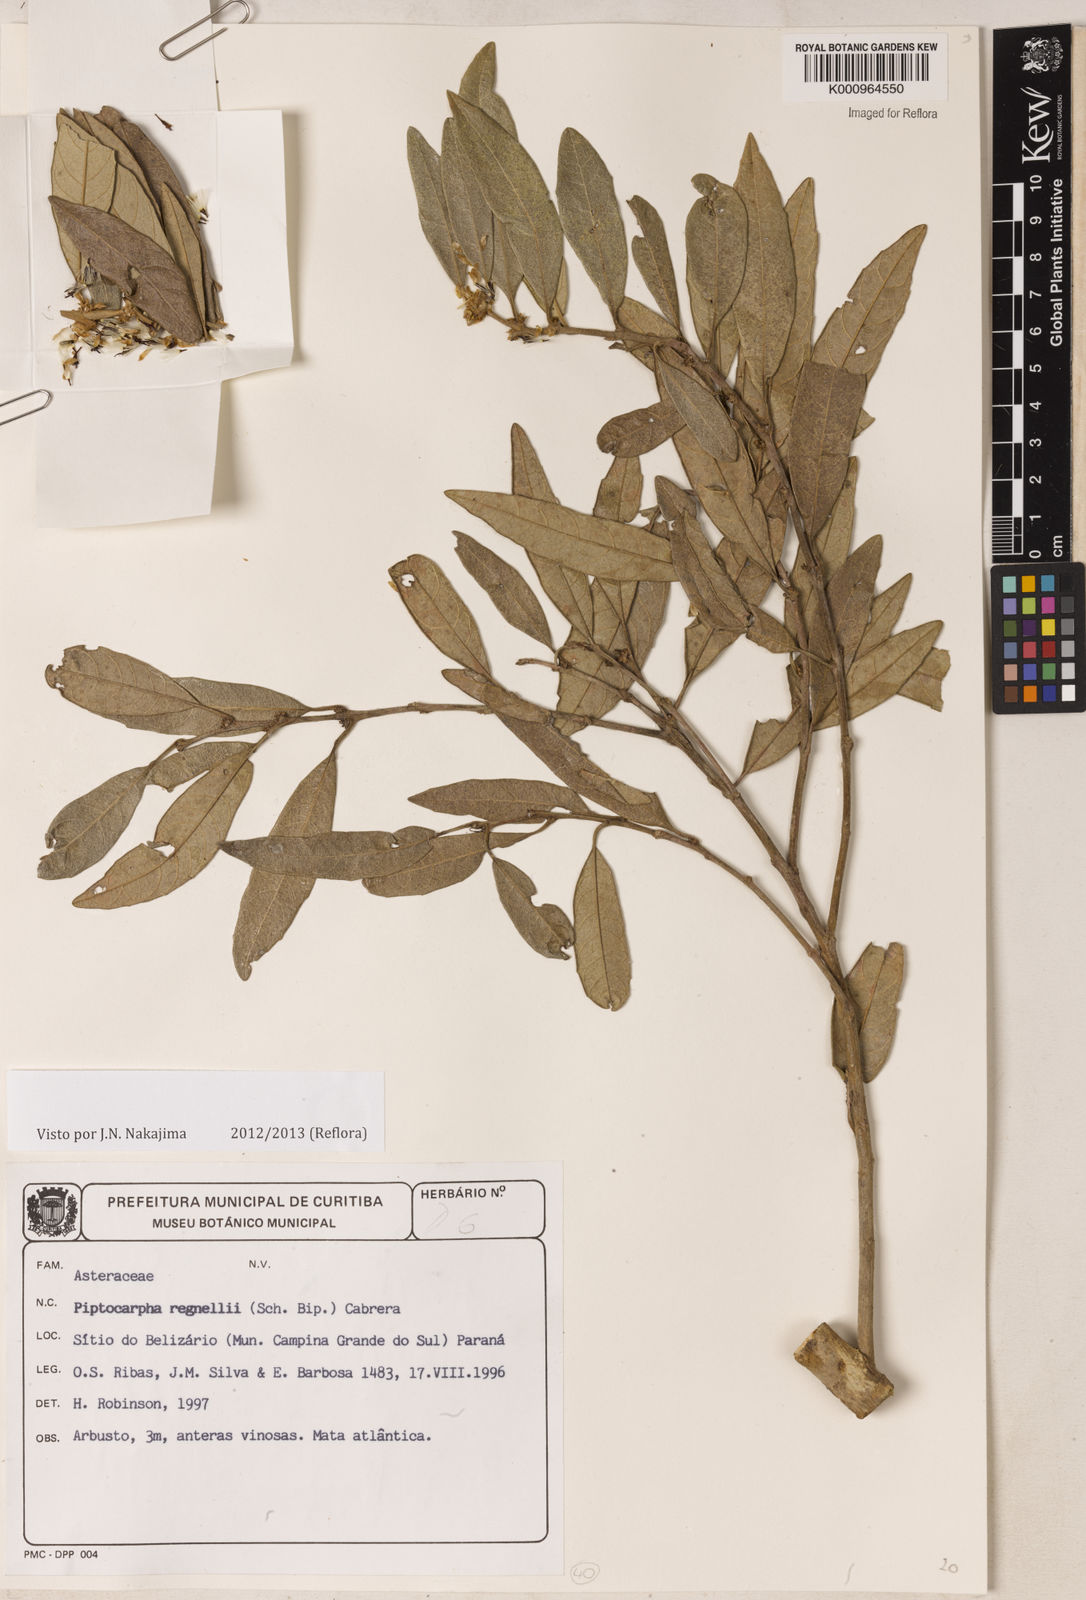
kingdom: Plantae
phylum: Tracheophyta
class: Magnoliopsida
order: Asterales
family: Asteraceae
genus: Piptocarpha
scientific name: Piptocarpha regnellii
